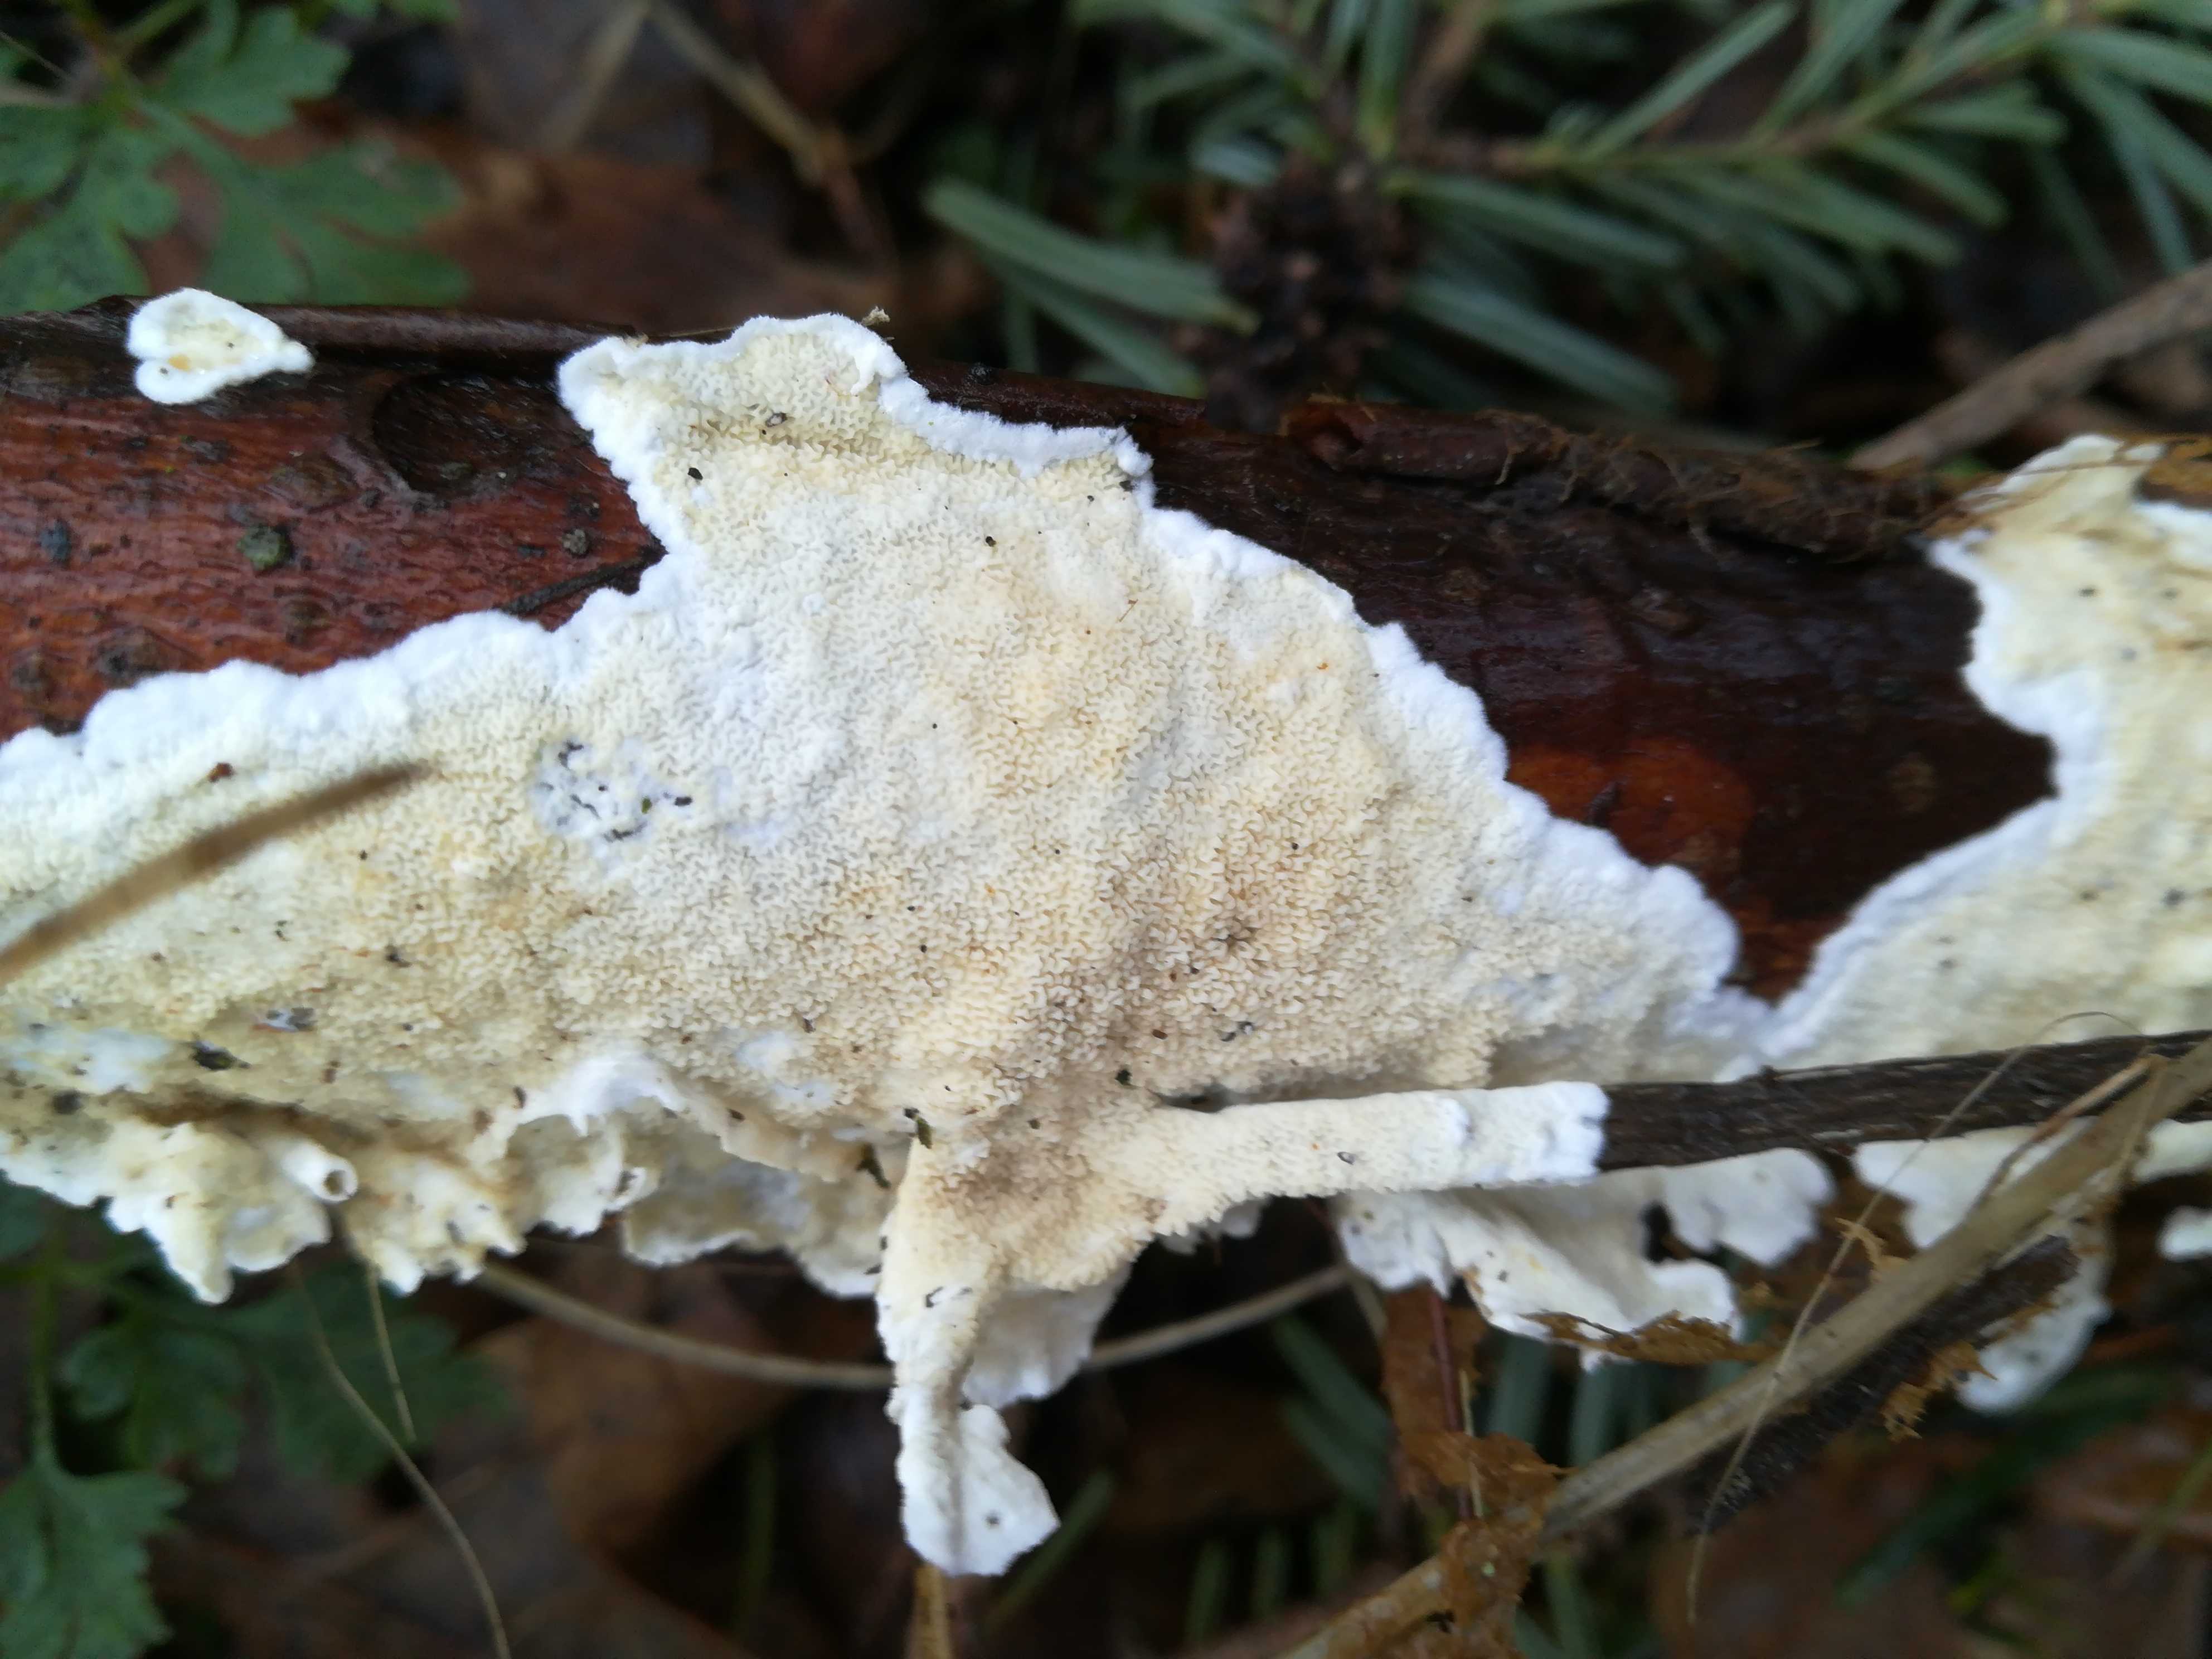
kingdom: Fungi
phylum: Basidiomycota
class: Agaricomycetes
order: Polyporales
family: Irpicaceae
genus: Byssomerulius
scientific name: Byssomerulius corium
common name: læder-åresvamp
